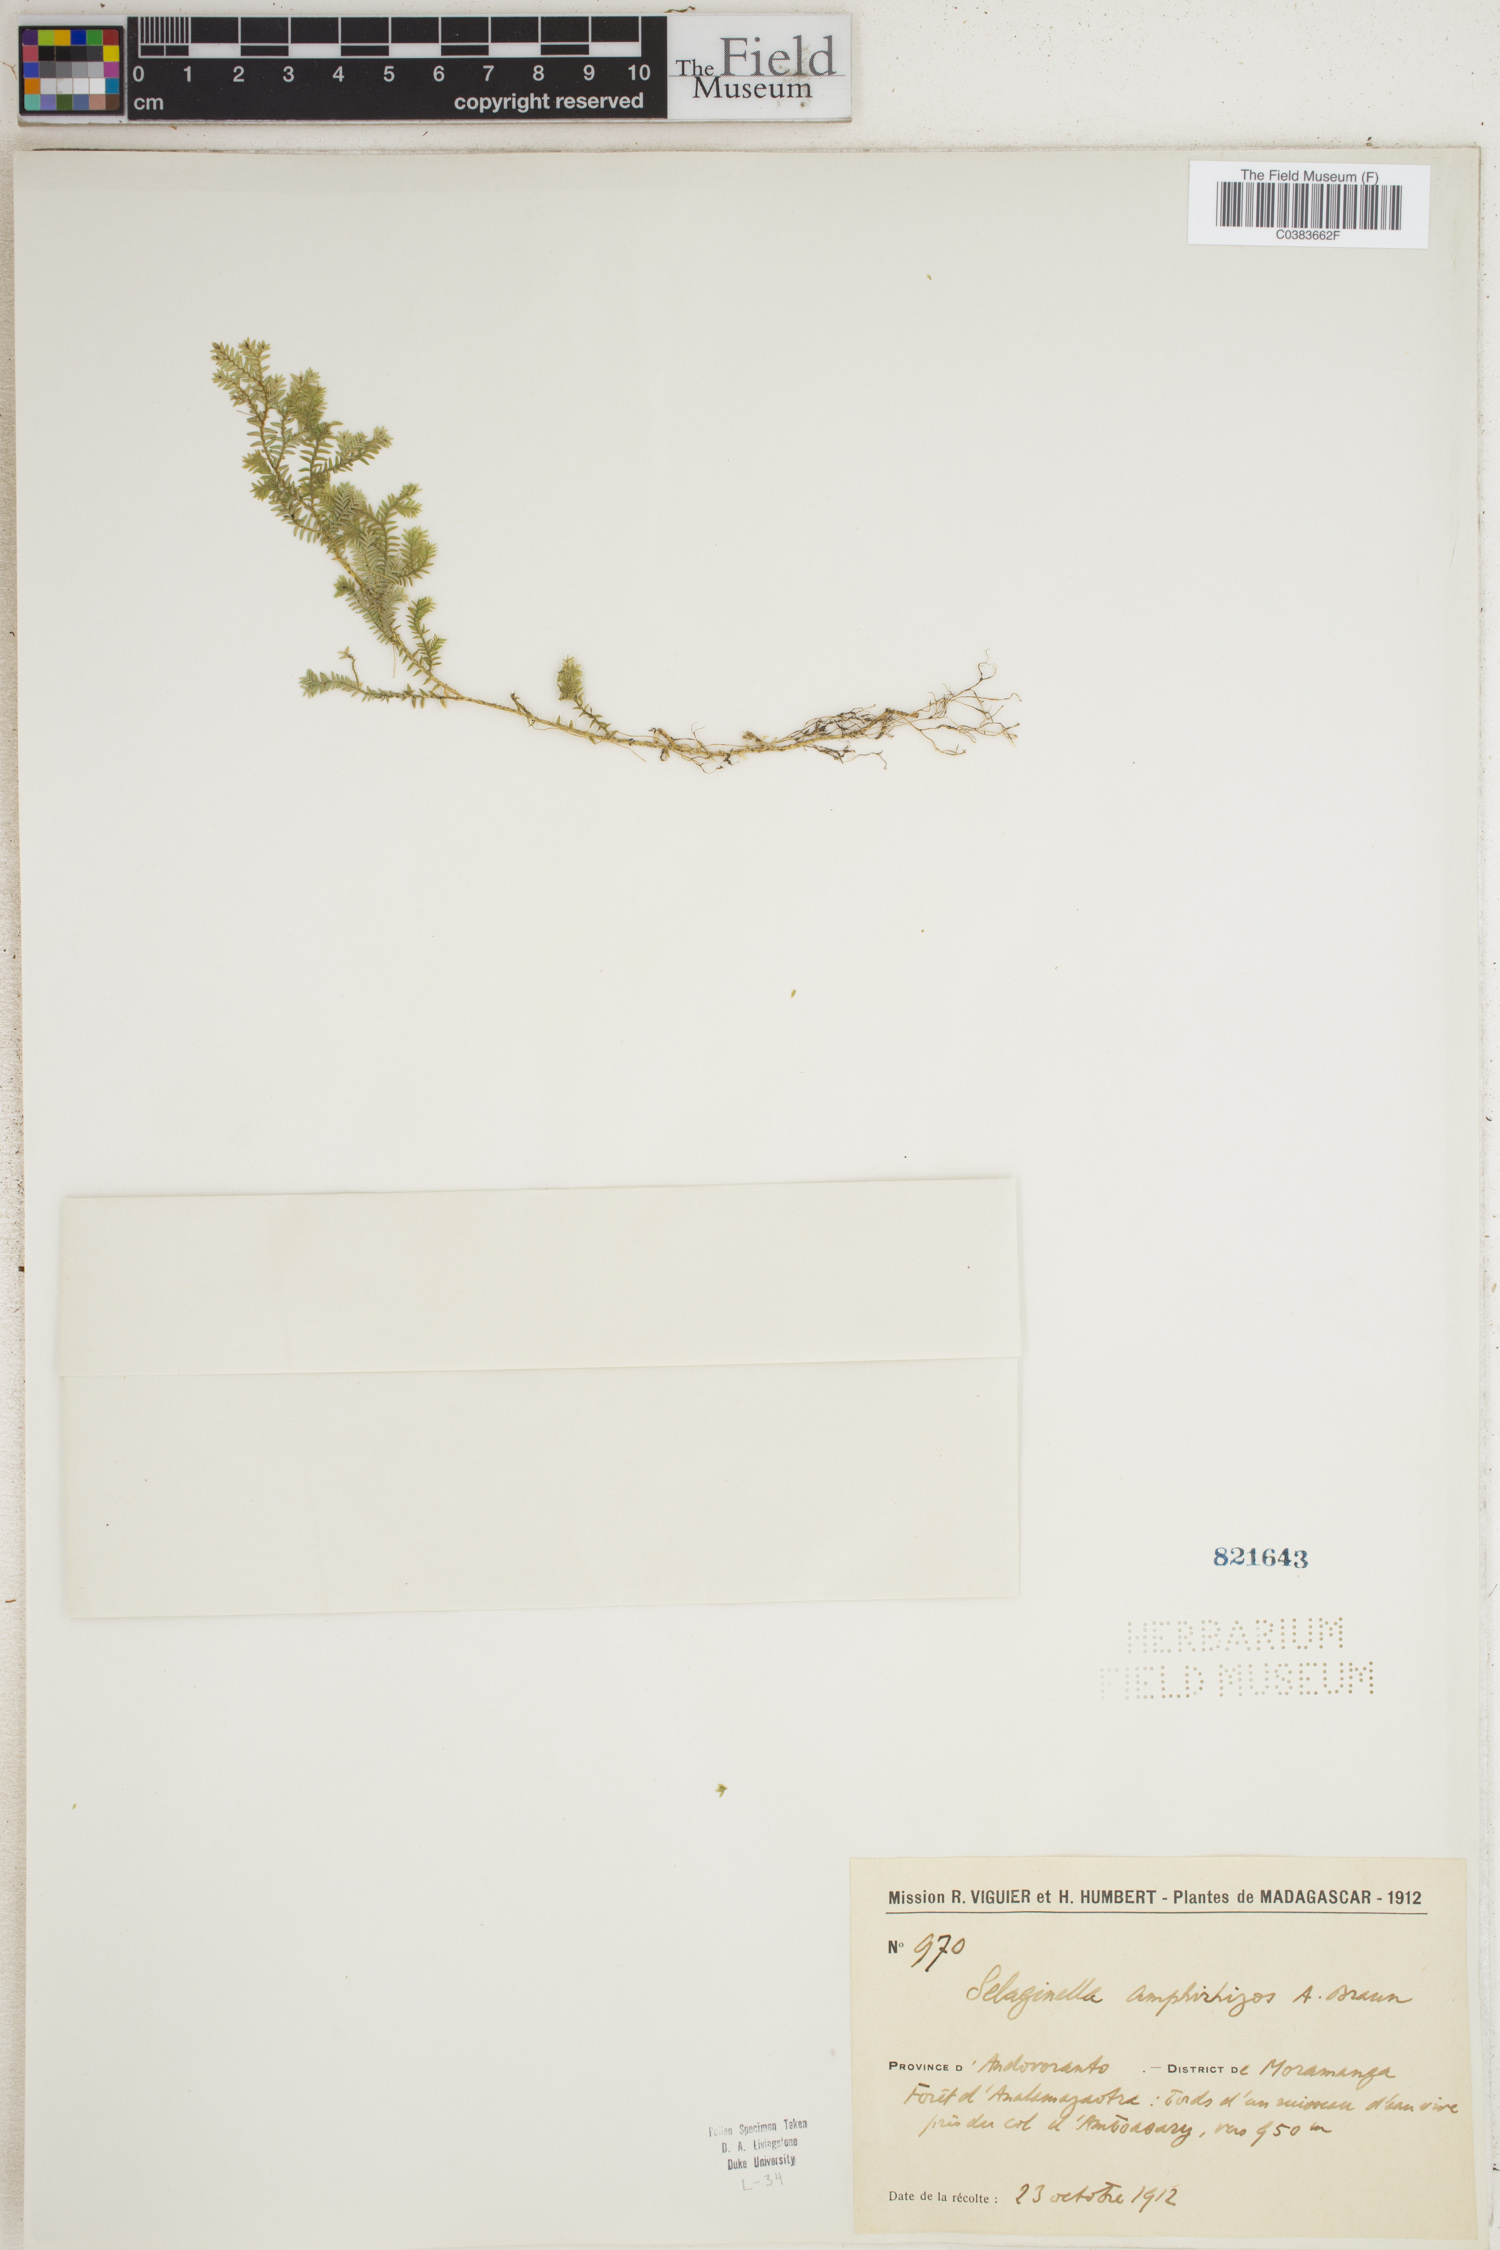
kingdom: Plantae
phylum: Tracheophyta
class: Lycopodiopsida
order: Selaginellales
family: Selaginellaceae
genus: Selaginella
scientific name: Selaginella fissidentoides
